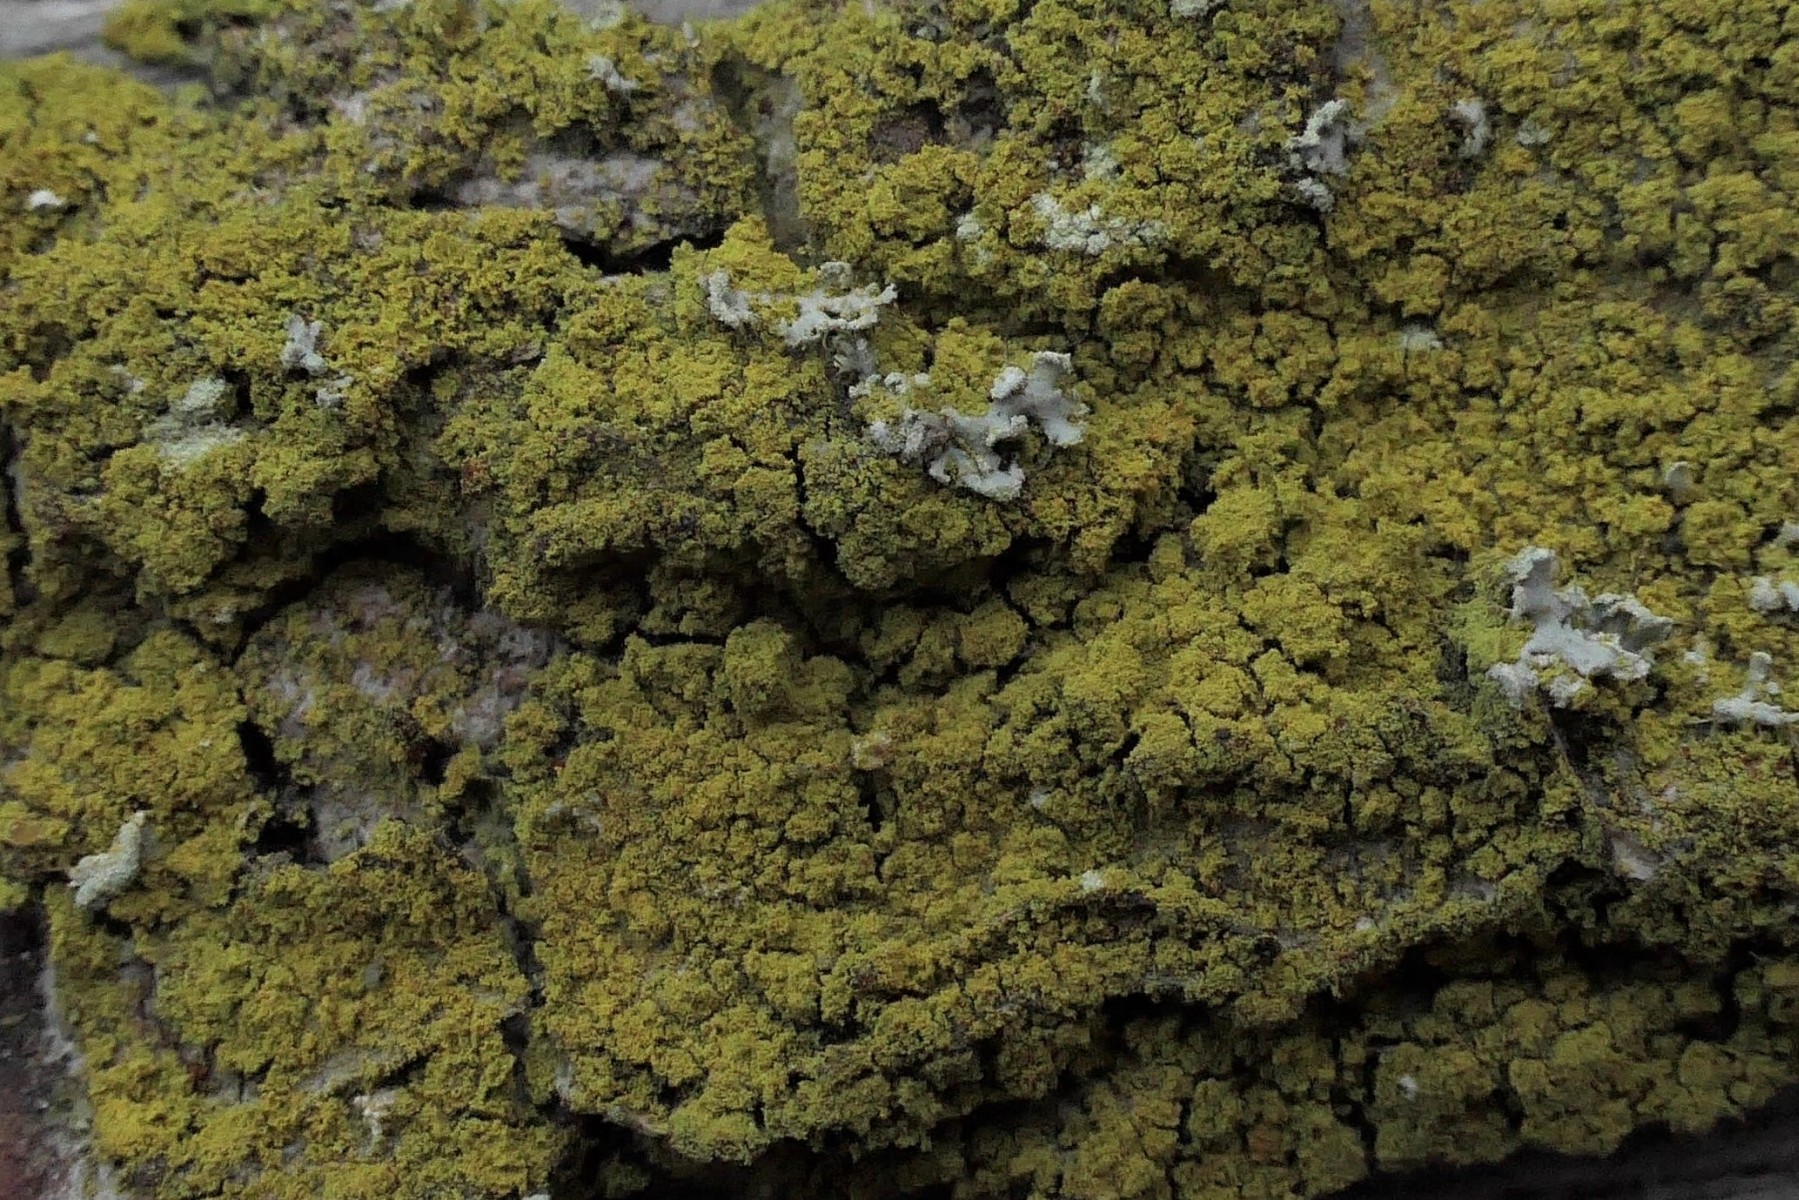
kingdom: Fungi
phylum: Ascomycota
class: Candelariomycetes
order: Candelariales
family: Candelariaceae
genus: Candelaria
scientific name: Candelaria pacifica
